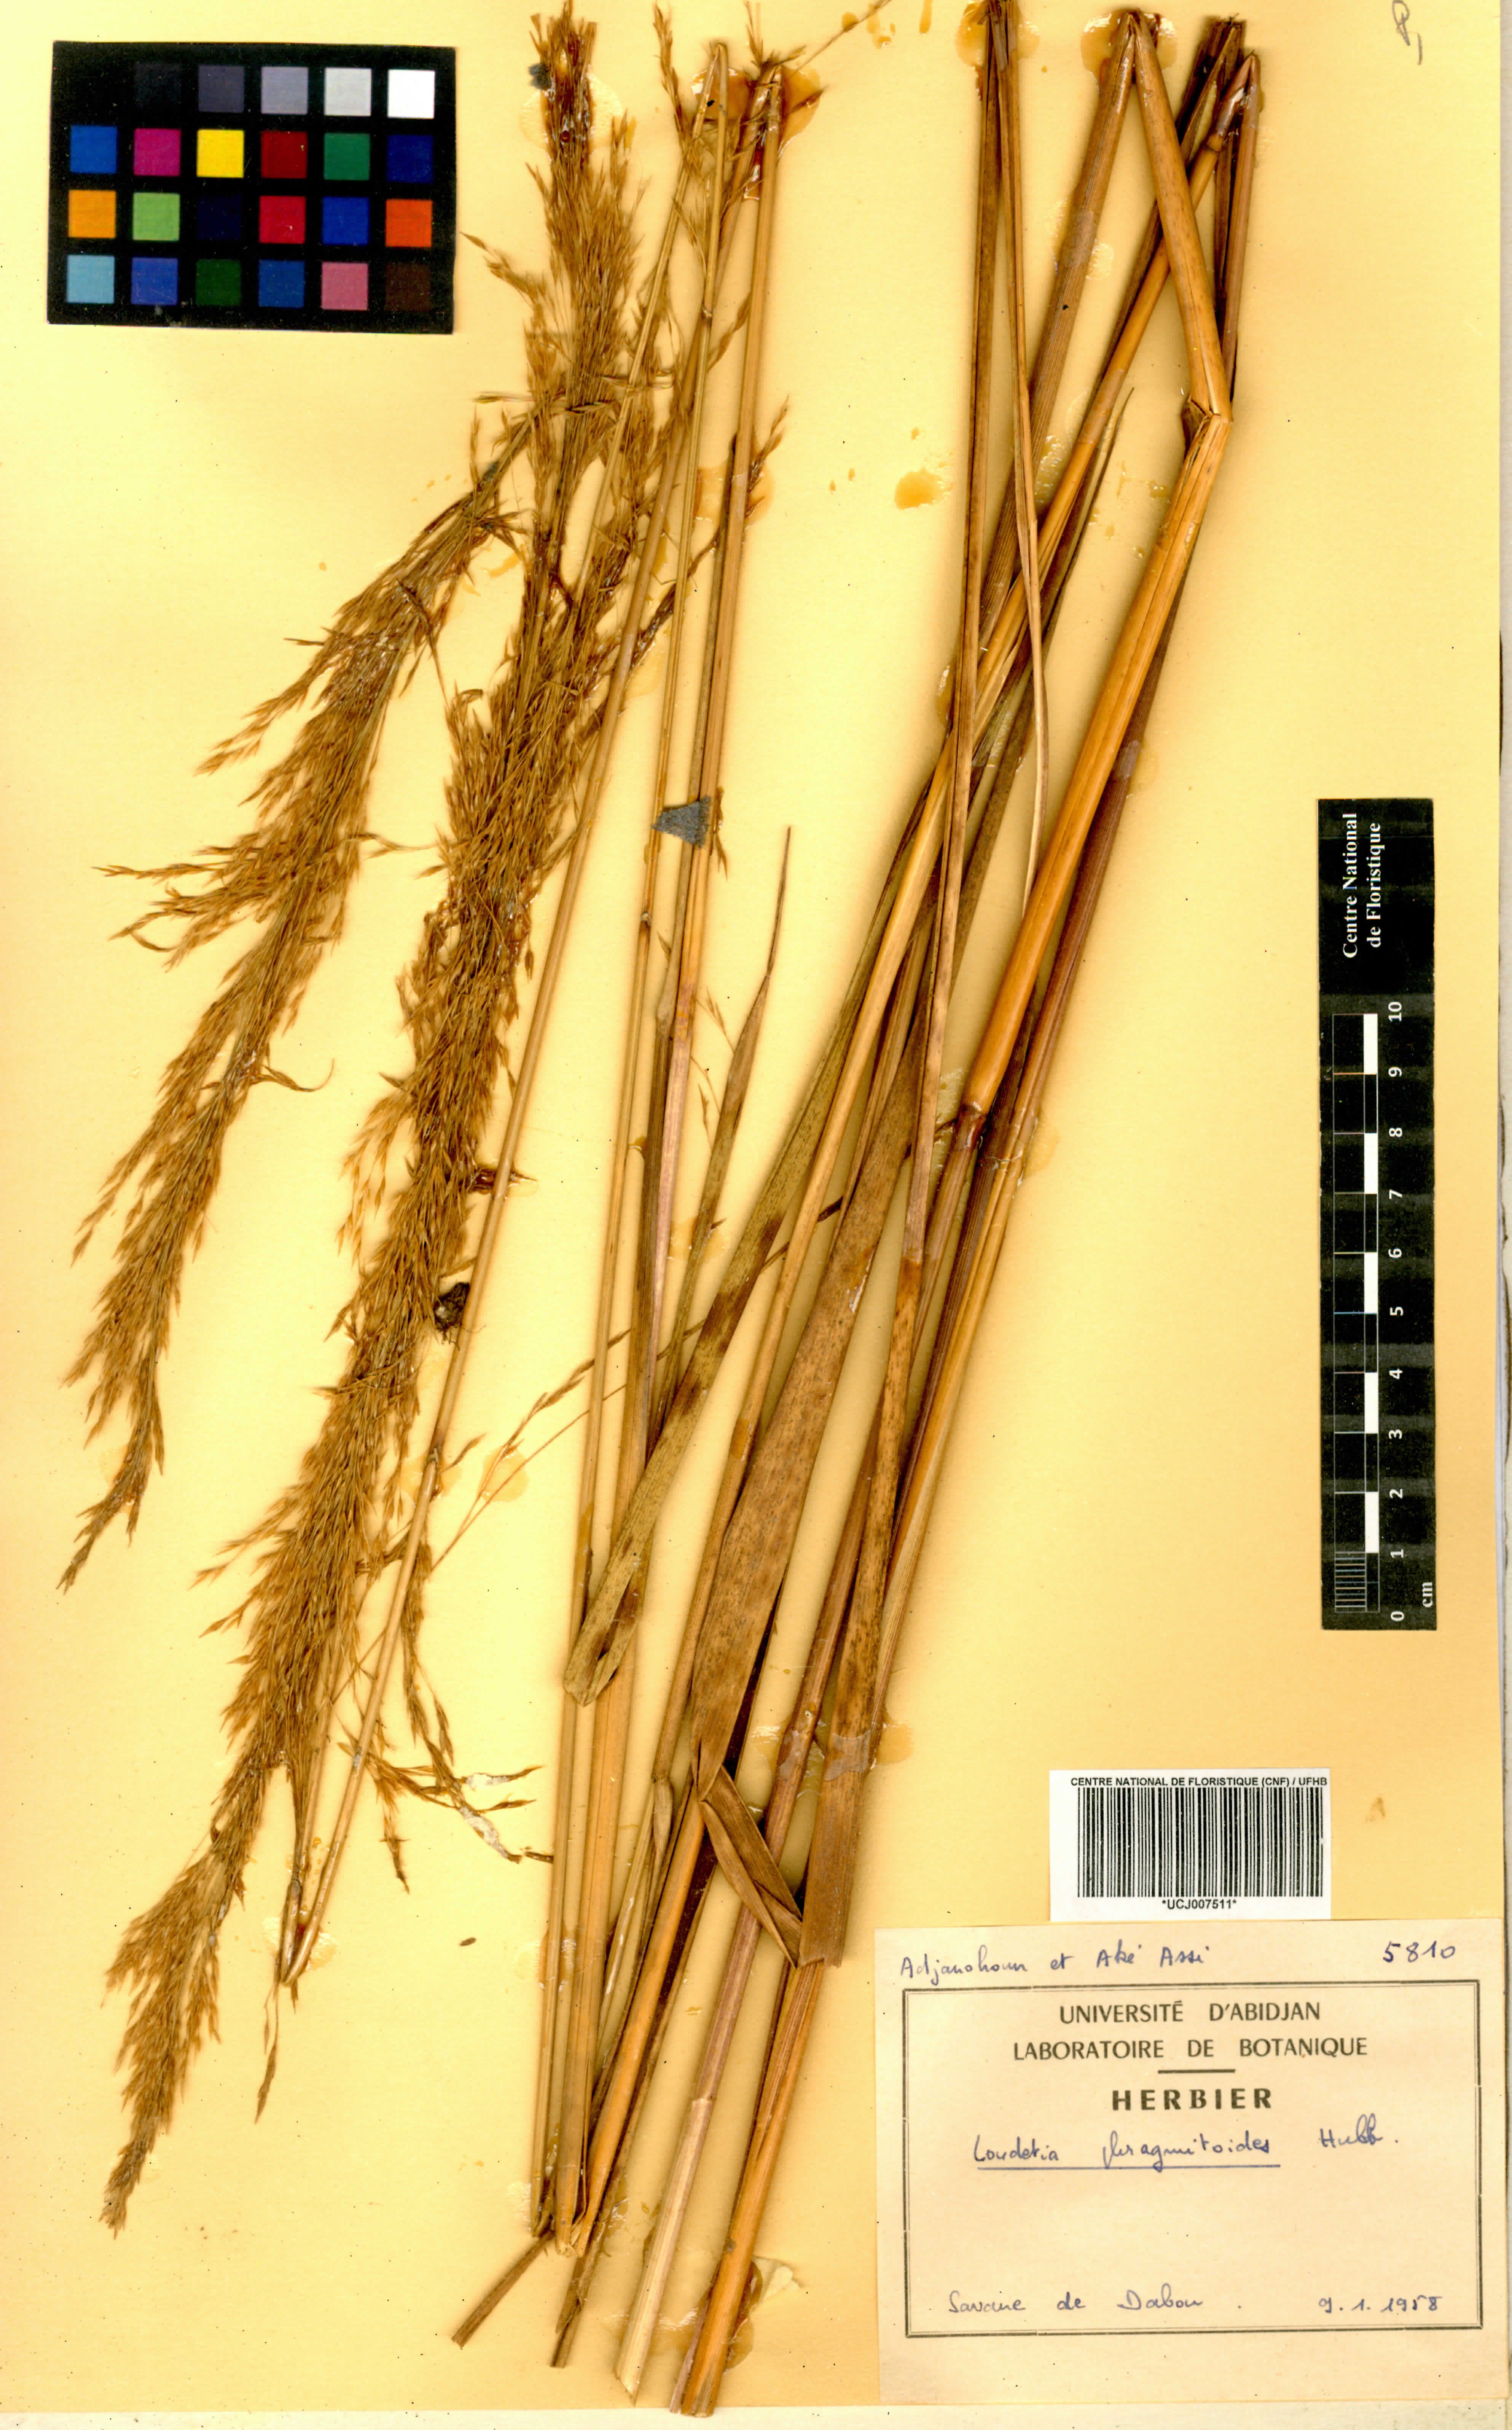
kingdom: Plantae
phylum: Tracheophyta
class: Liliopsida
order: Poales
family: Poaceae
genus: Loudetia
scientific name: Loudetia phragmitoides
